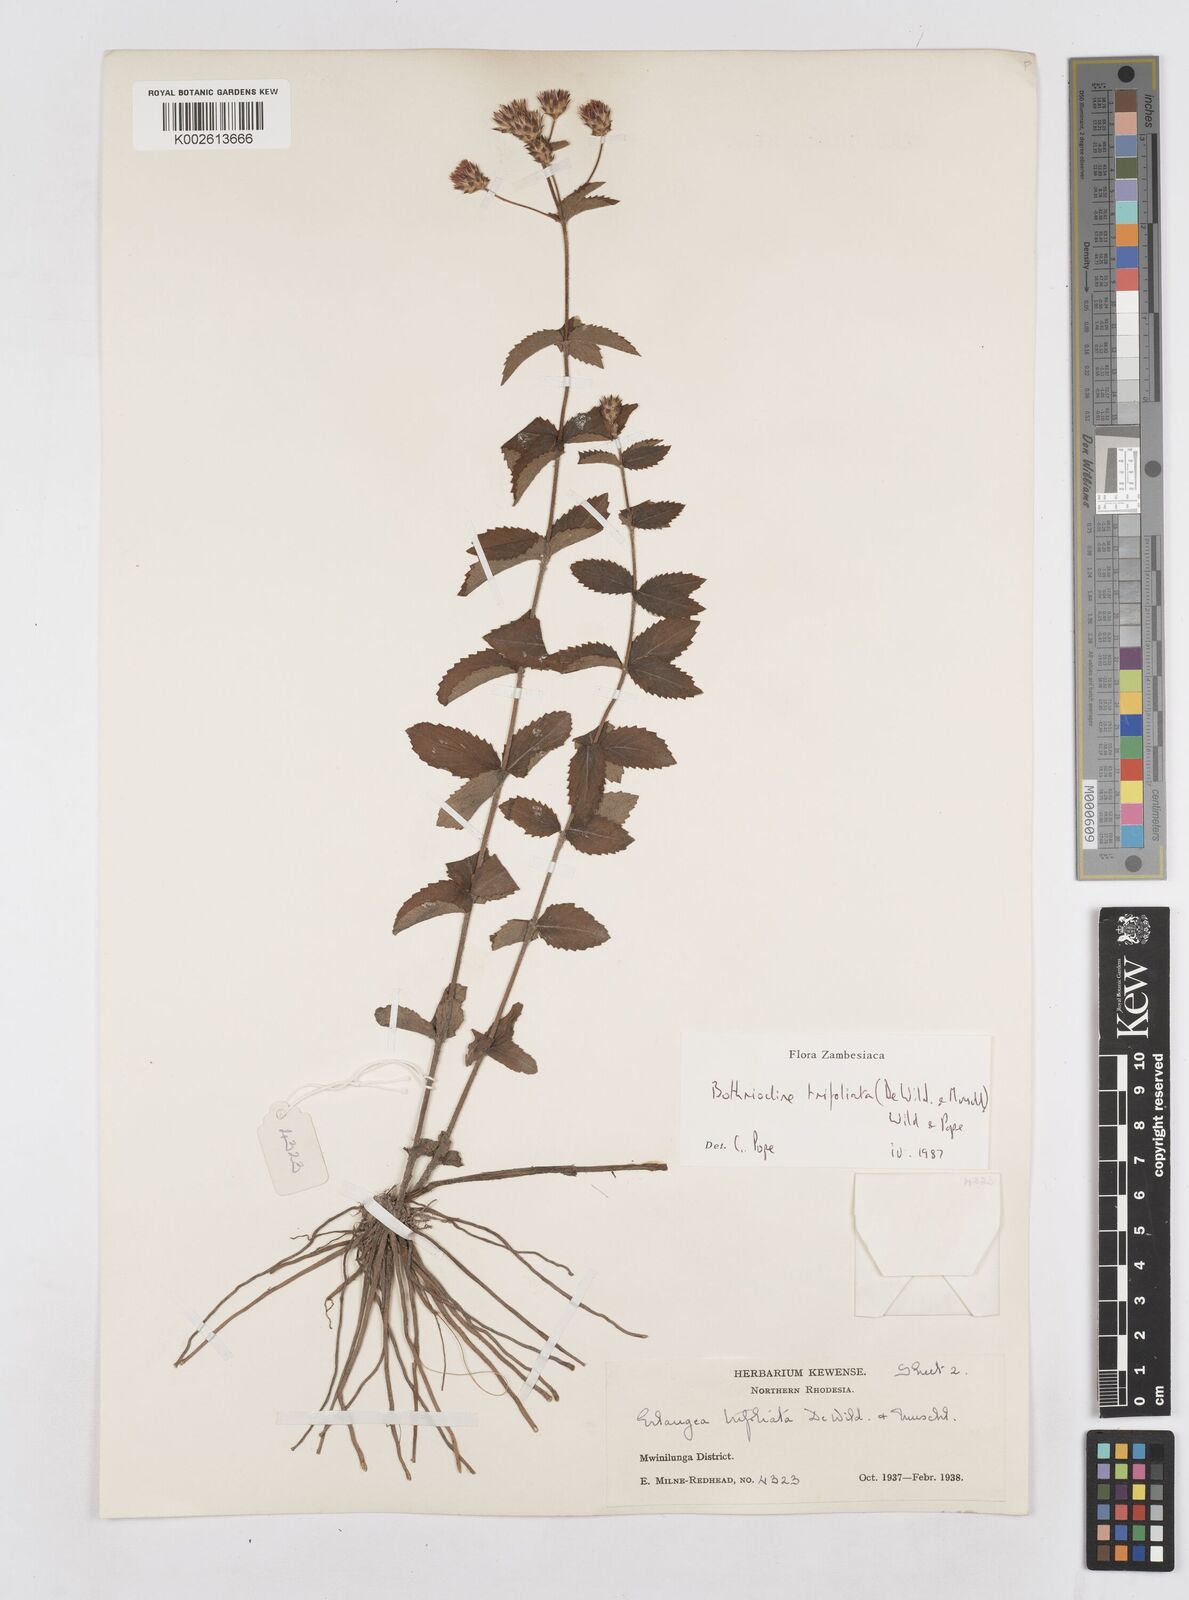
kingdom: Plantae
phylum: Tracheophyta
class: Magnoliopsida
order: Asterales
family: Asteraceae
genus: Bothriocline
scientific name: Bothriocline trifoliata
